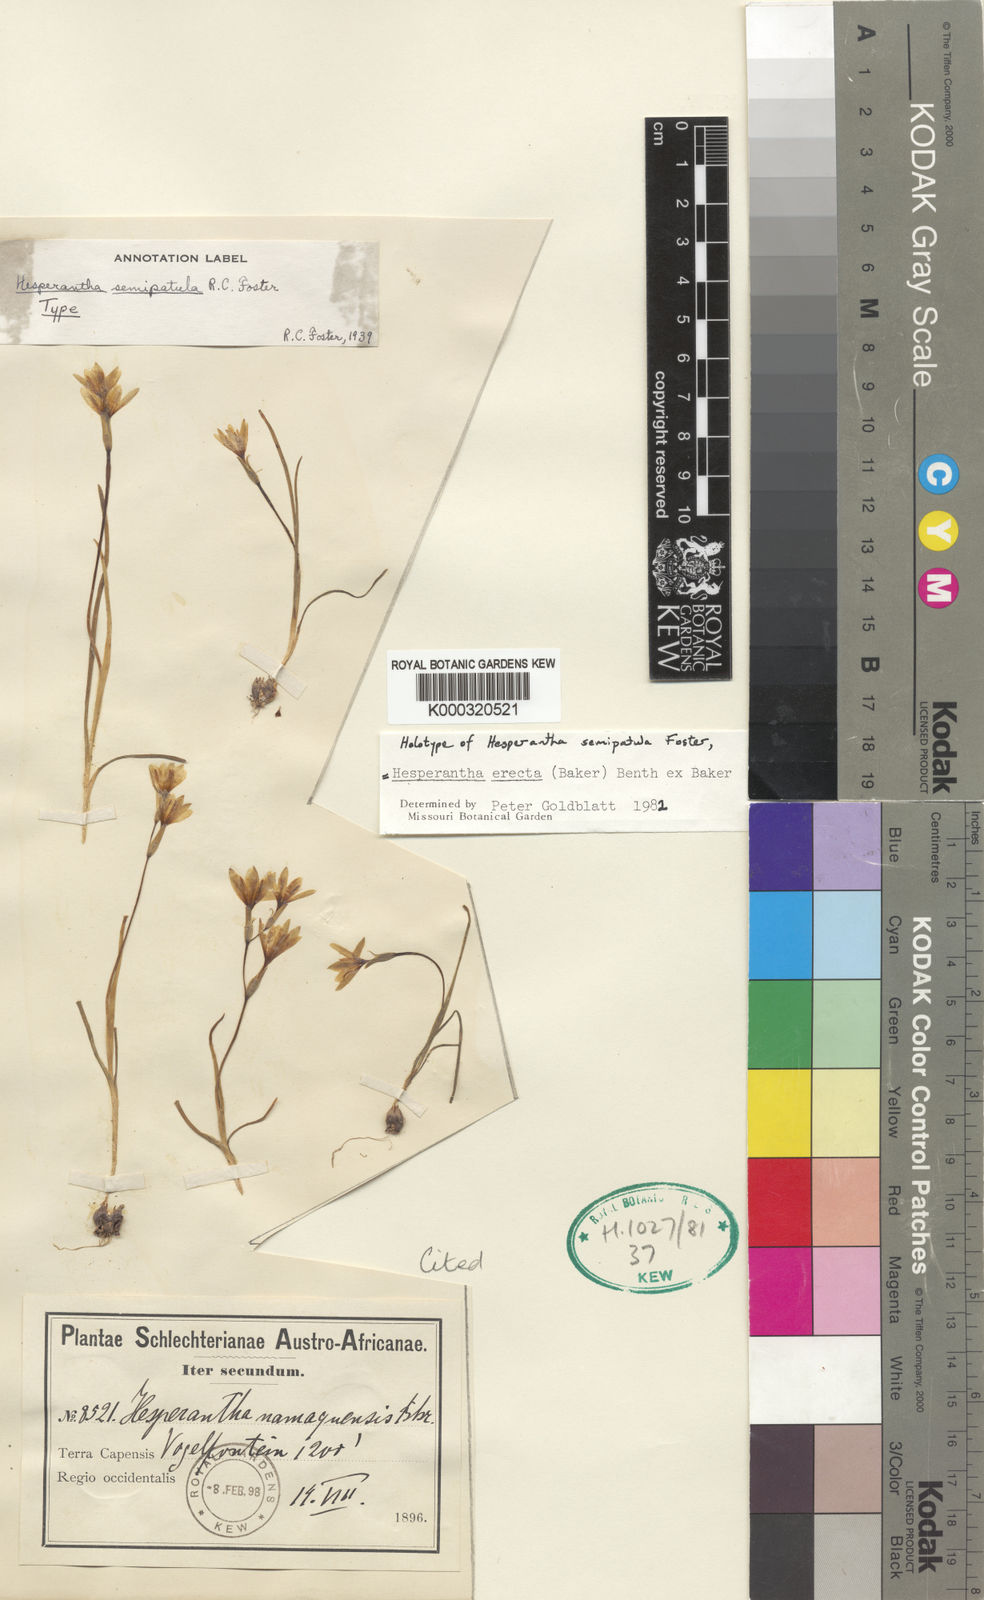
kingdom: Plantae
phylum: Tracheophyta
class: Liliopsida
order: Asparagales
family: Iridaceae
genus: Hesperantha
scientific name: Hesperantha
